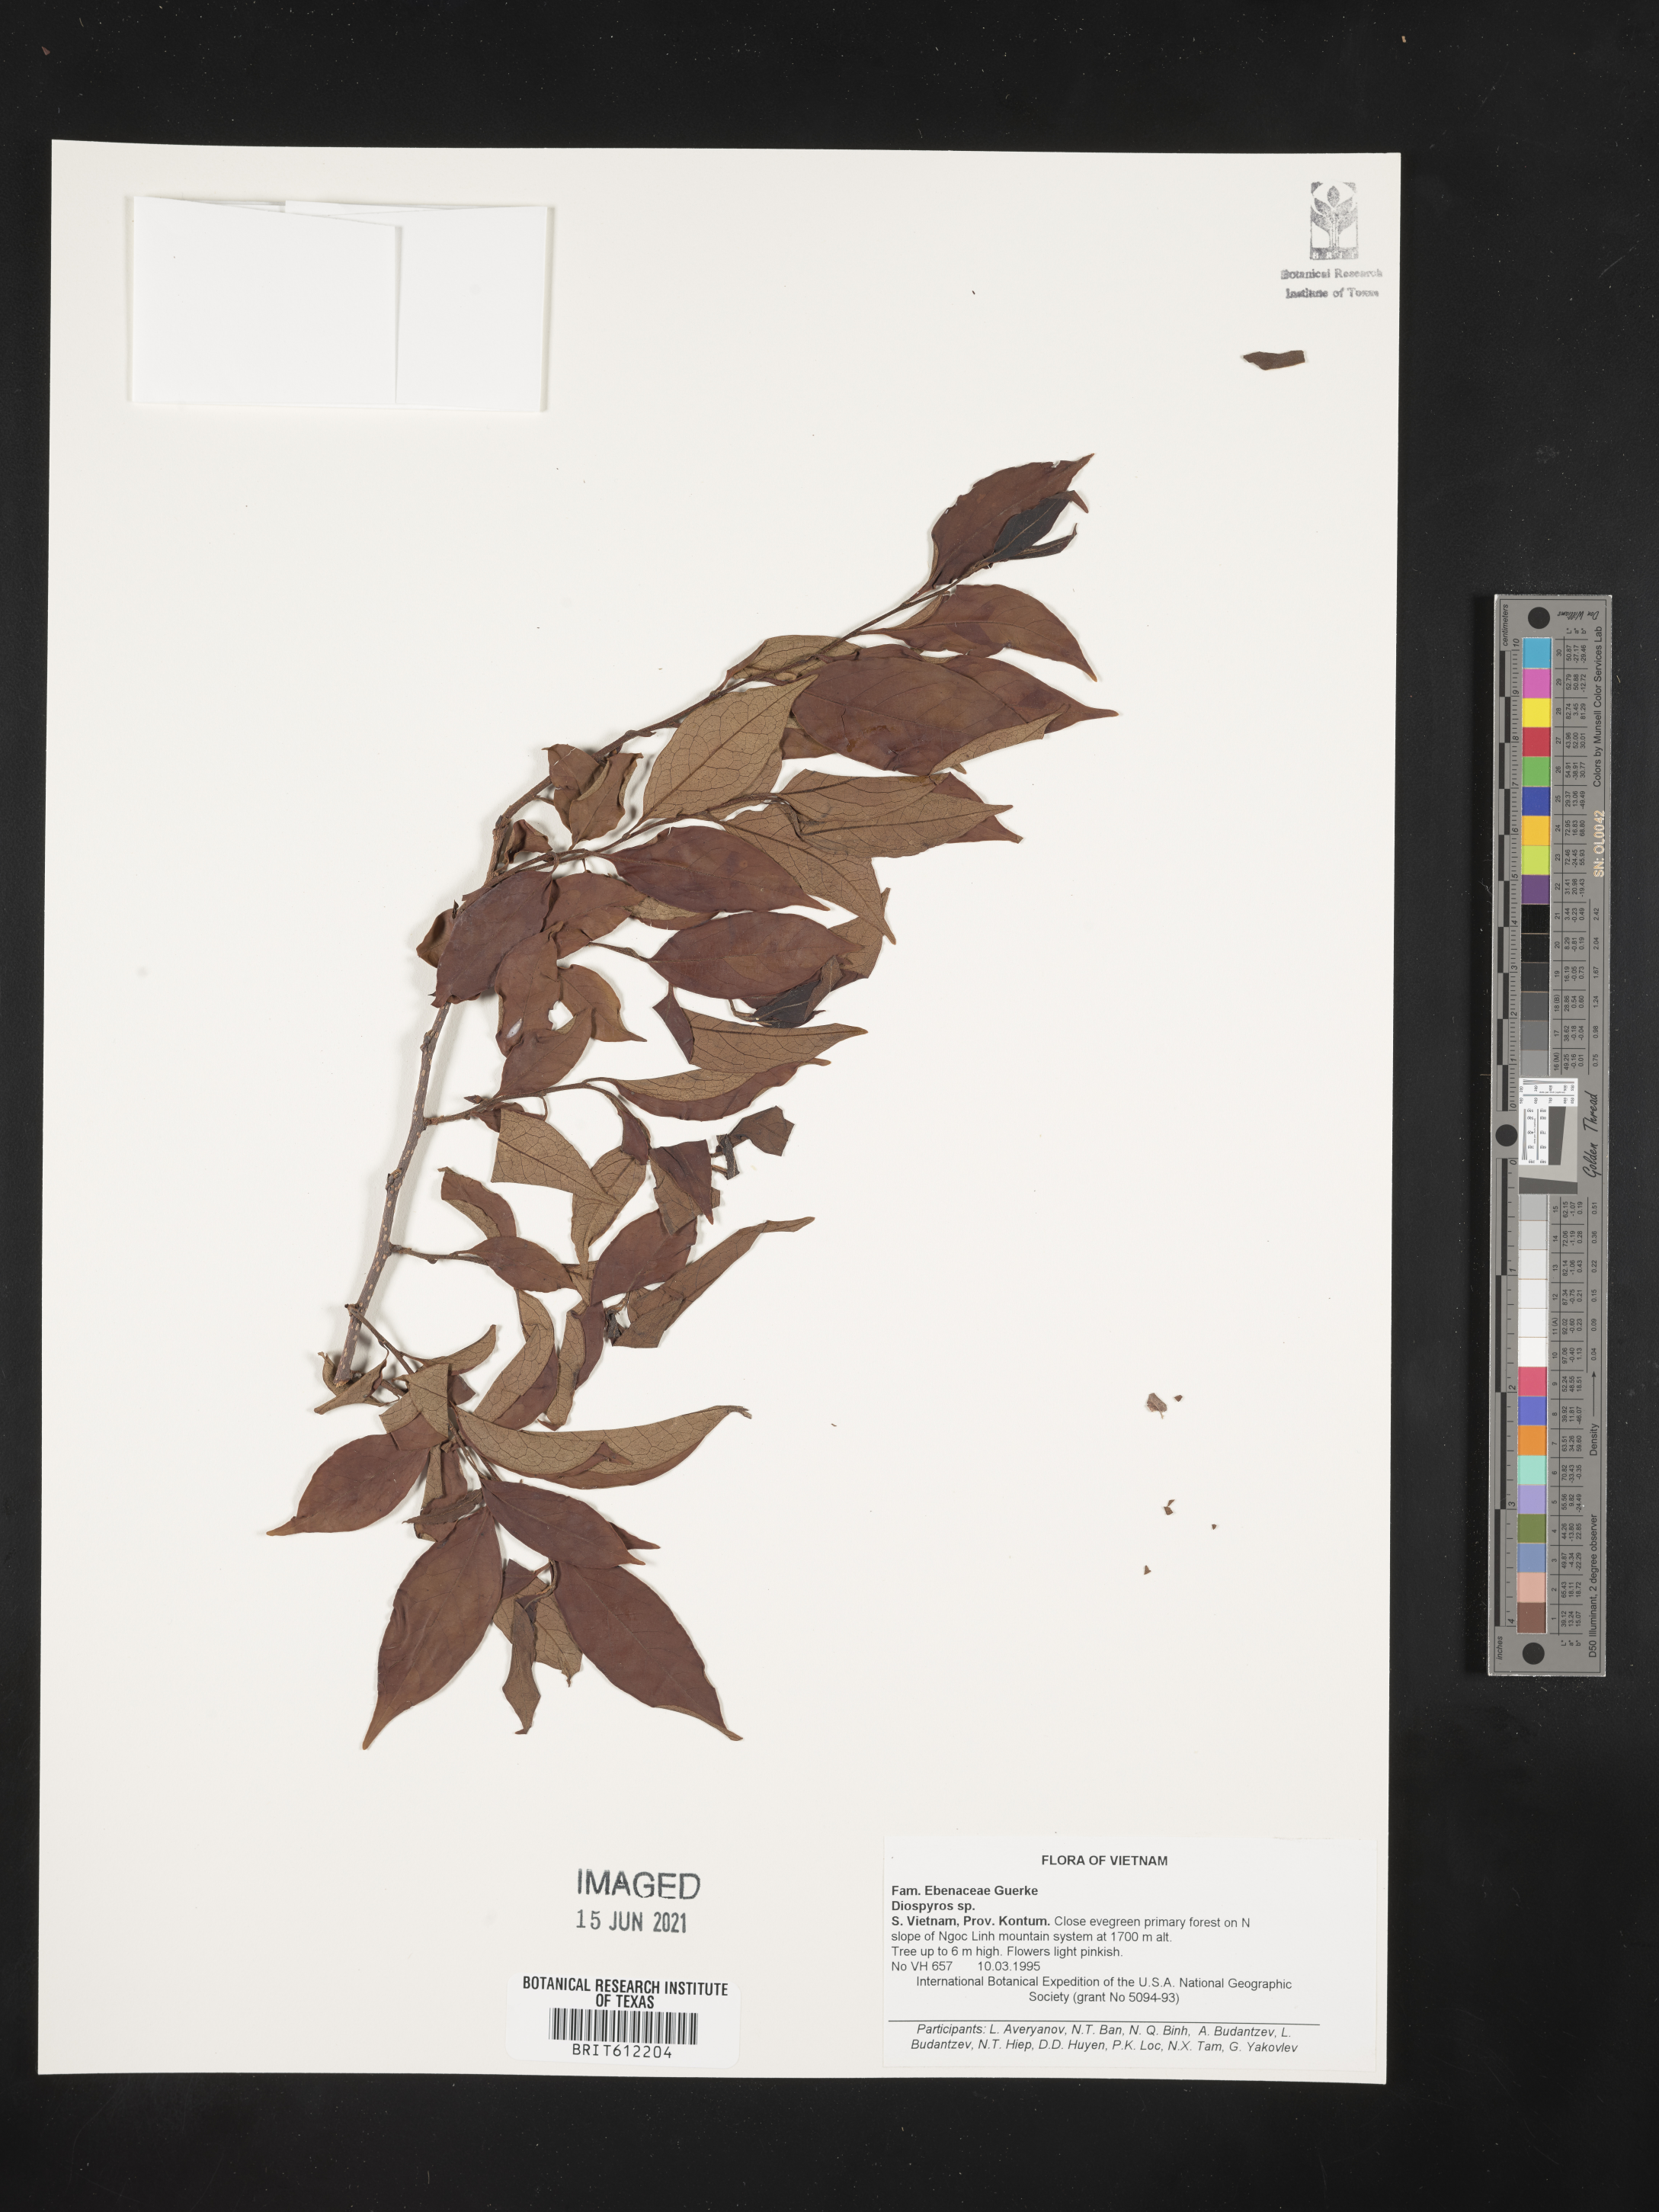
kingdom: Plantae
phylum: Tracheophyta
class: Magnoliopsida
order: Ericales
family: Ebenaceae
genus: Diospyros
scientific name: Diospyros
